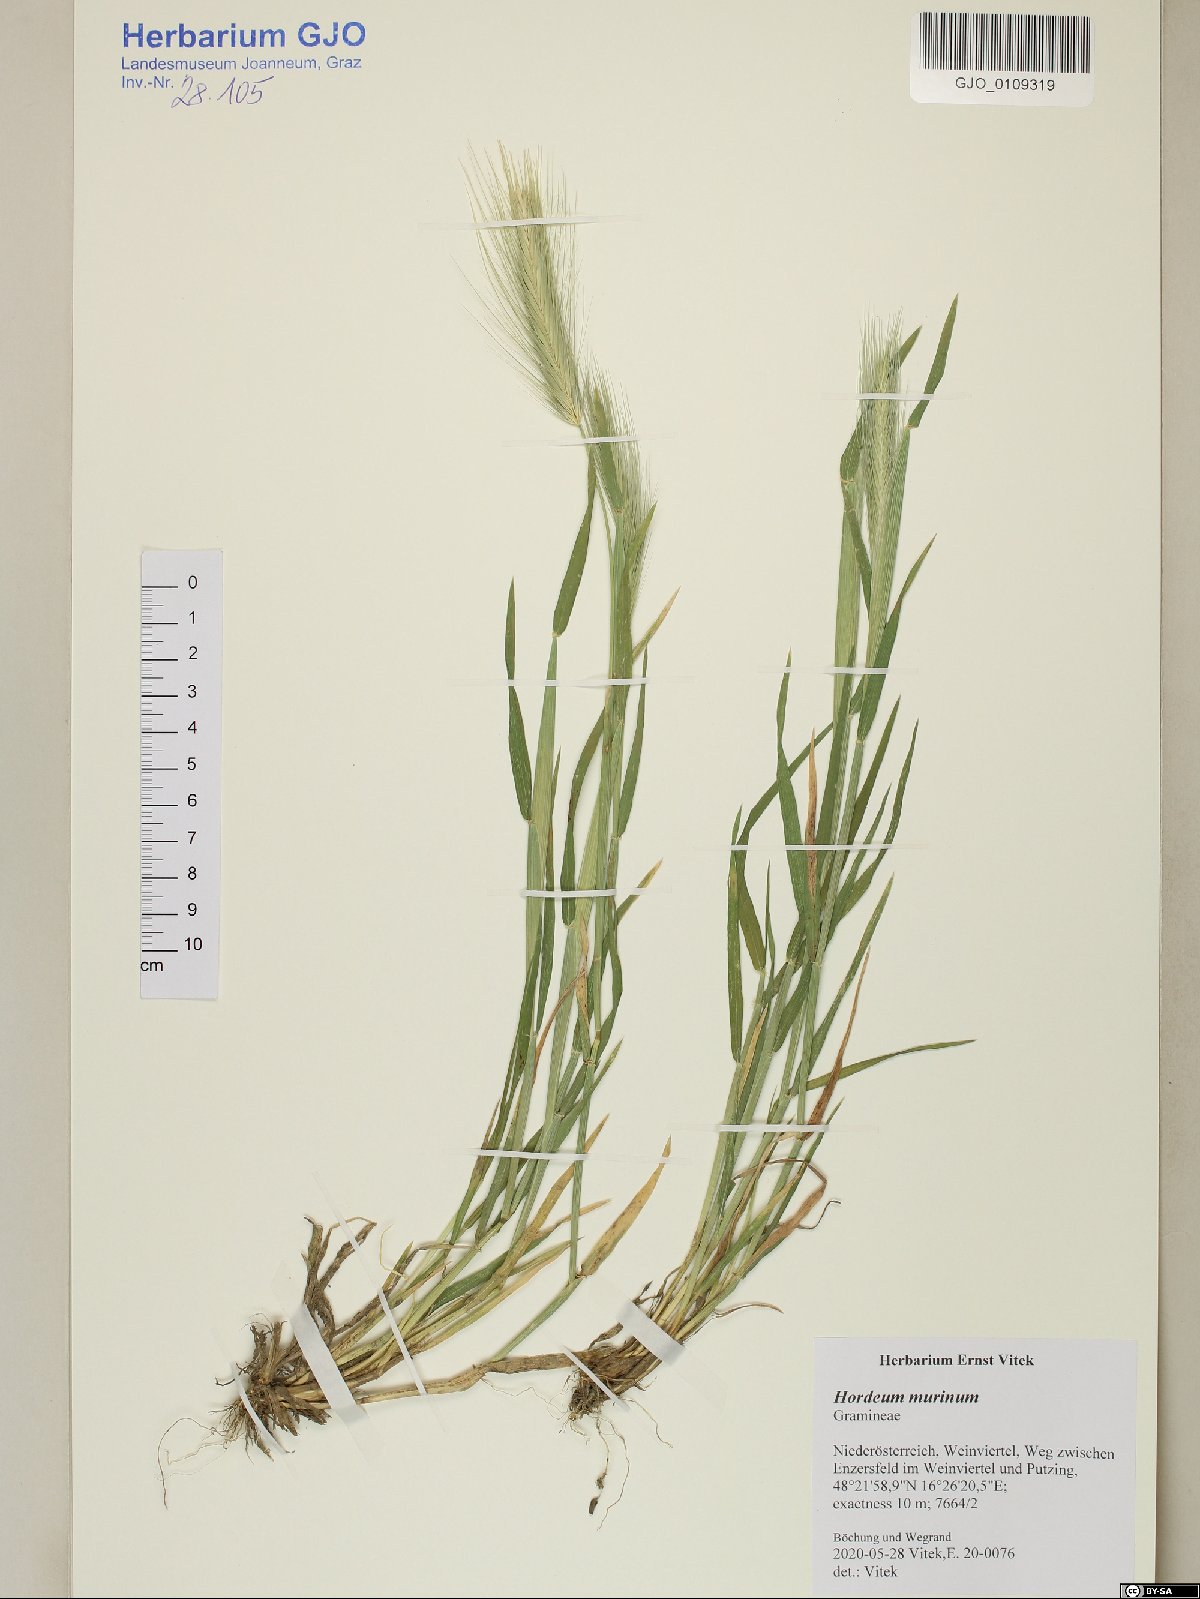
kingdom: Plantae
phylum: Tracheophyta
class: Liliopsida
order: Poales
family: Poaceae
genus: Hordeum
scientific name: Hordeum murinum
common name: Wall barley
